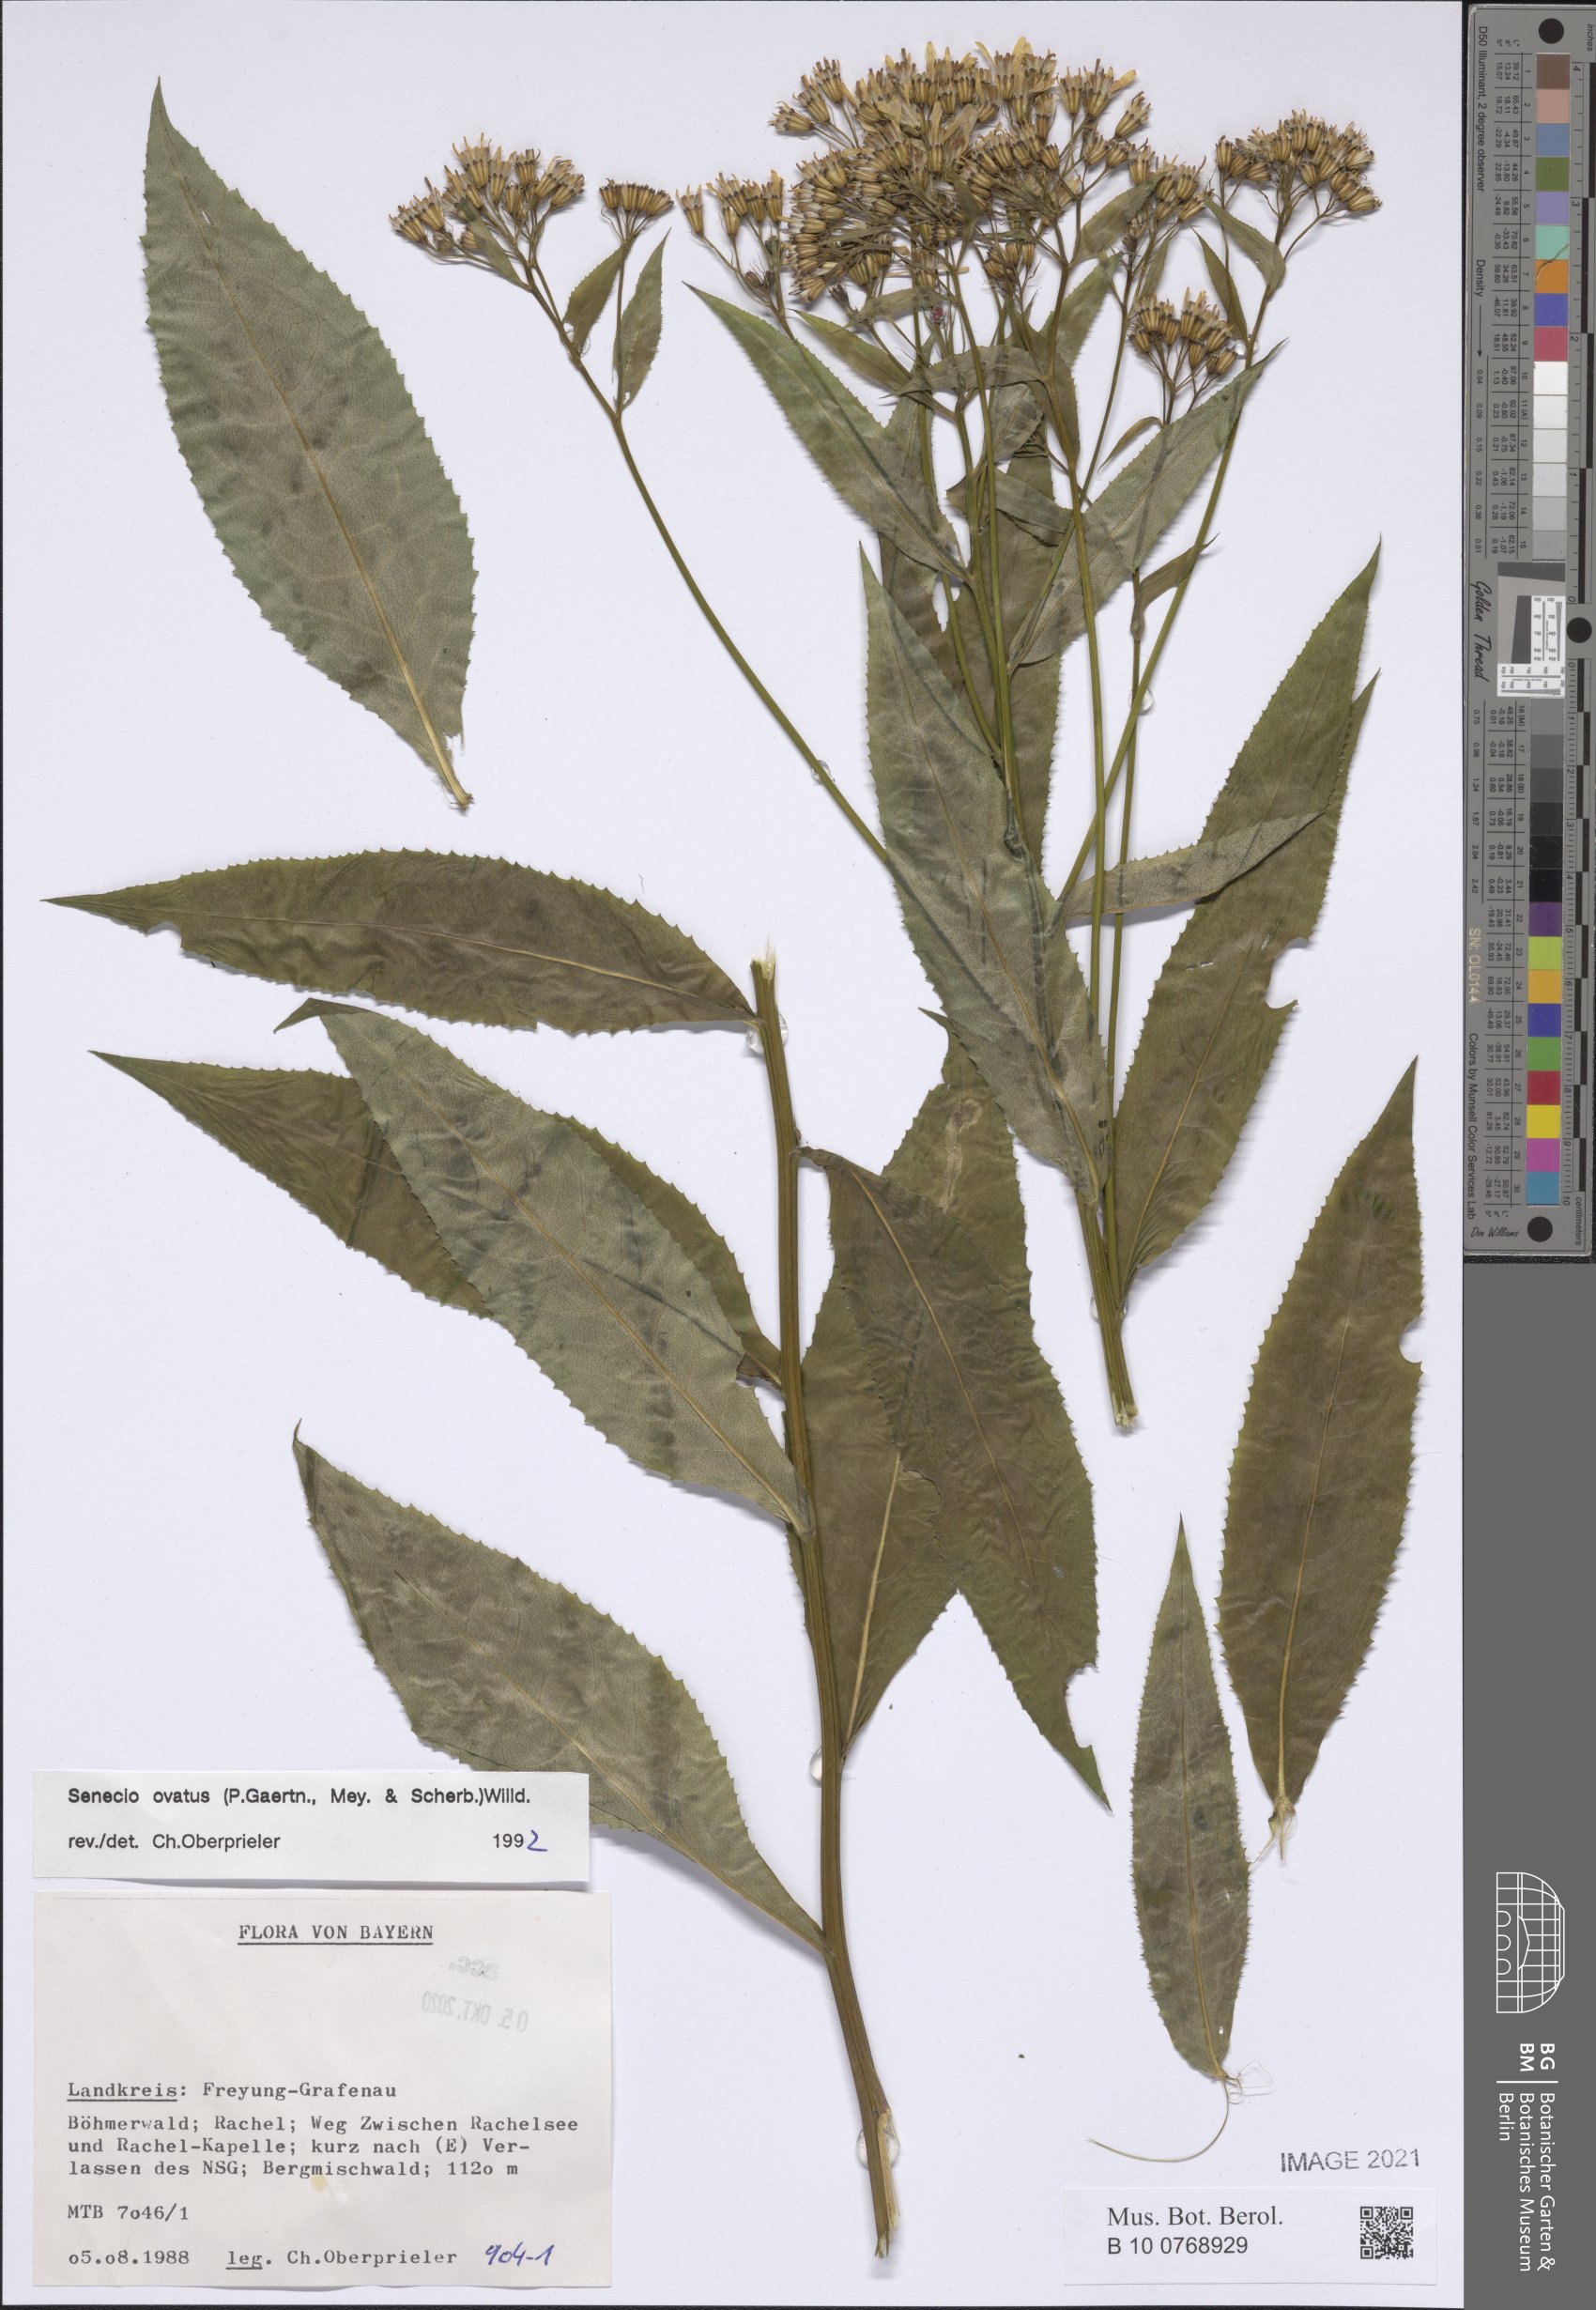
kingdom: Plantae
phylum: Tracheophyta
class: Magnoliopsida
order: Asterales
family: Asteraceae
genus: Senecio
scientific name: Senecio ovatus
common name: Wood ragwort
